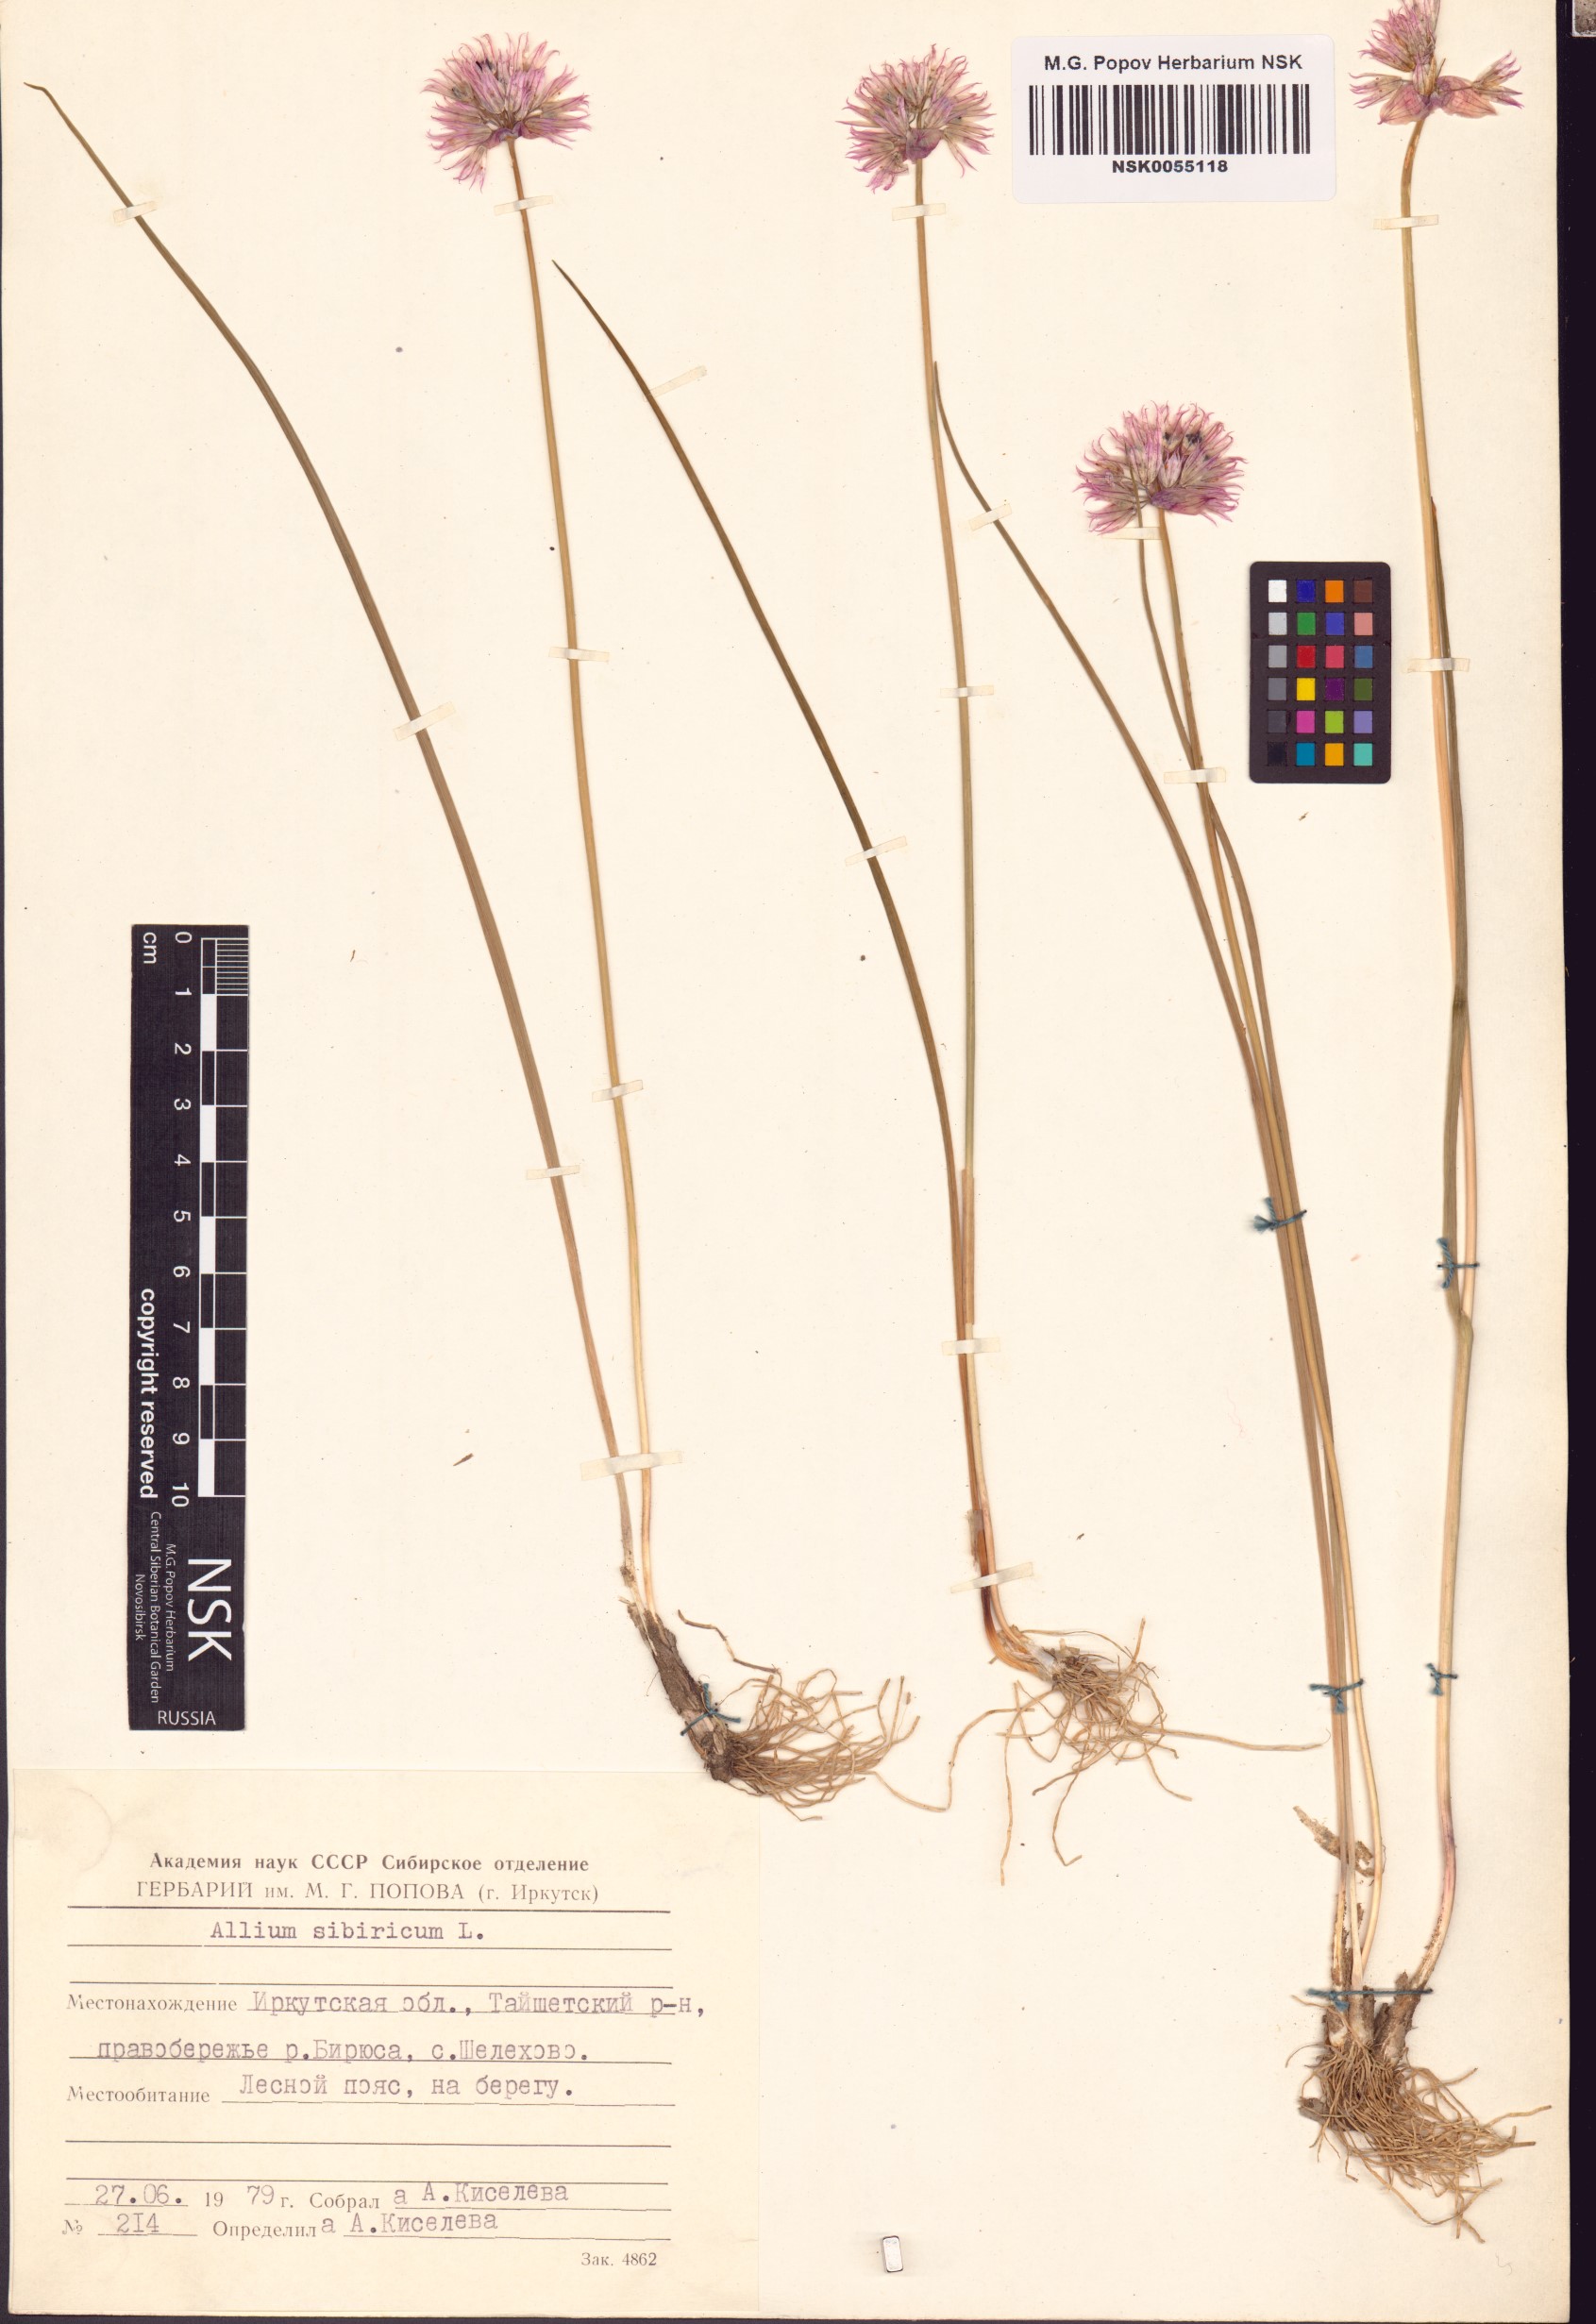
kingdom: Plantae
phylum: Tracheophyta
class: Liliopsida
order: Asparagales
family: Amaryllidaceae
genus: Allium
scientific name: Allium schoenoprasum
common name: Chives
